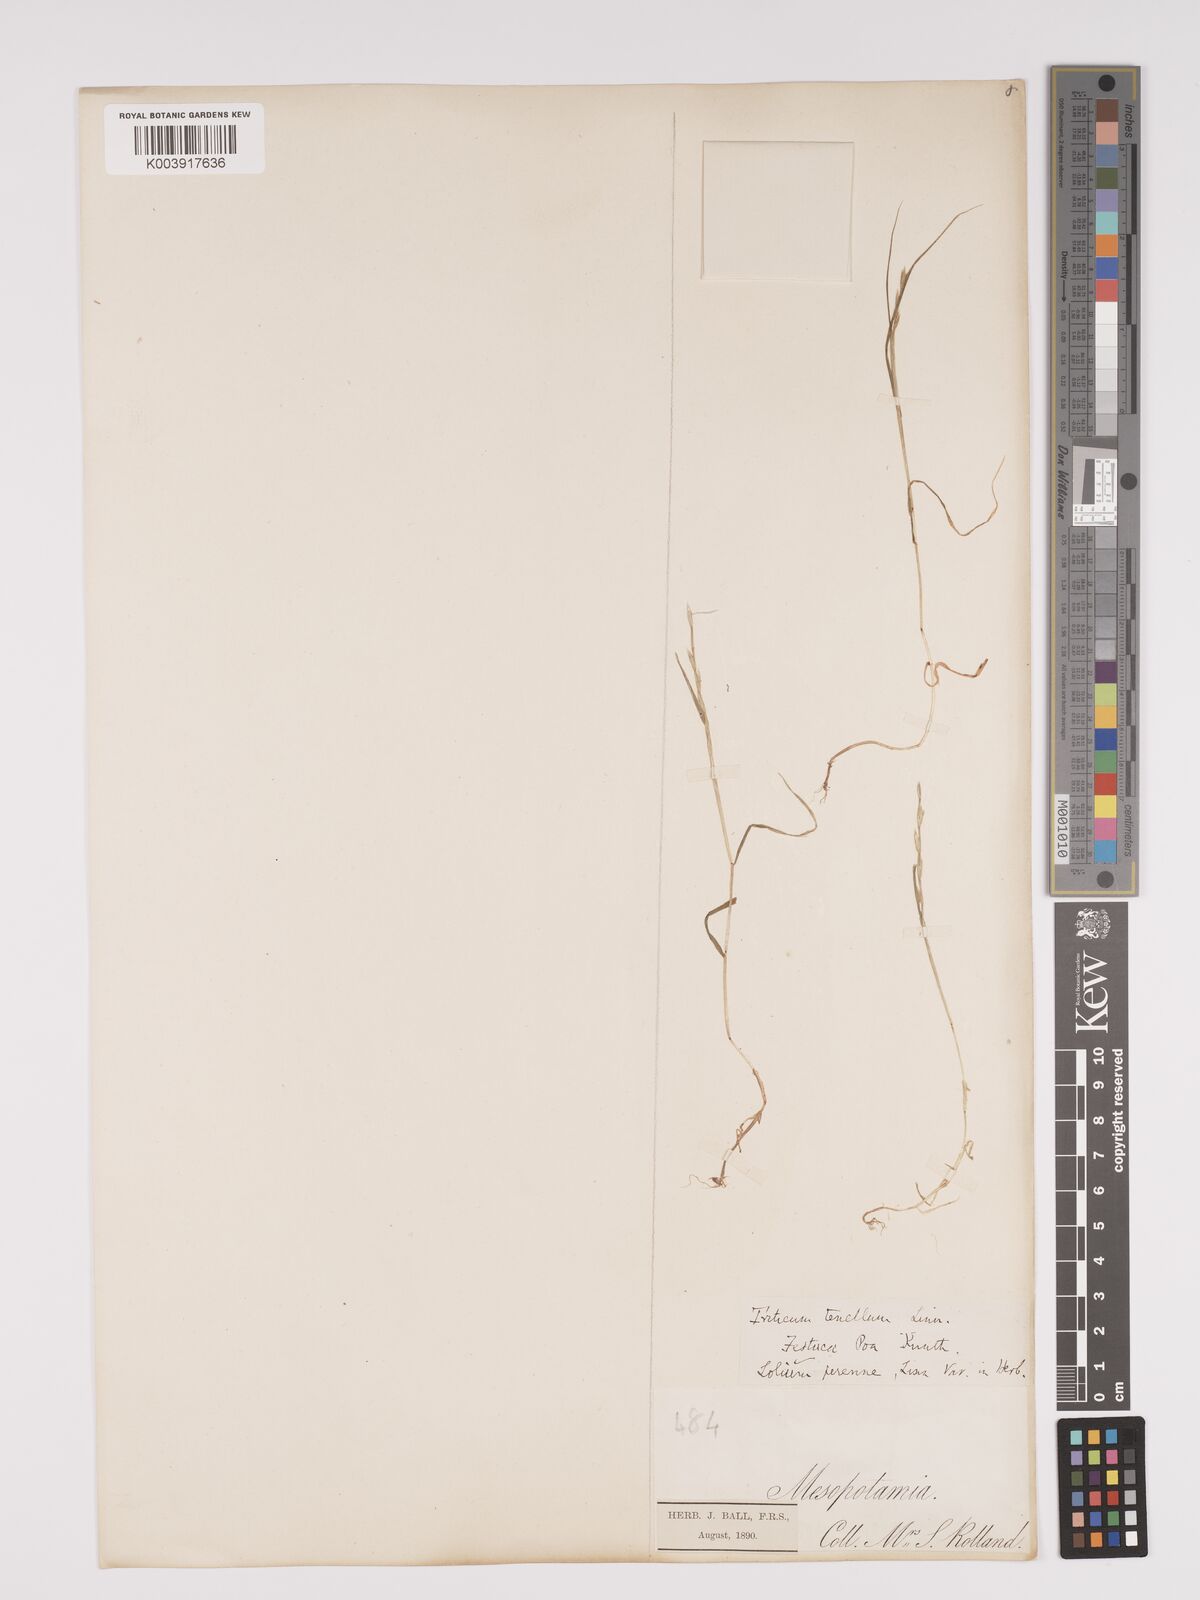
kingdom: Plantae
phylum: Tracheophyta
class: Liliopsida
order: Poales
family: Poaceae
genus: Lolium
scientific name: Lolium
